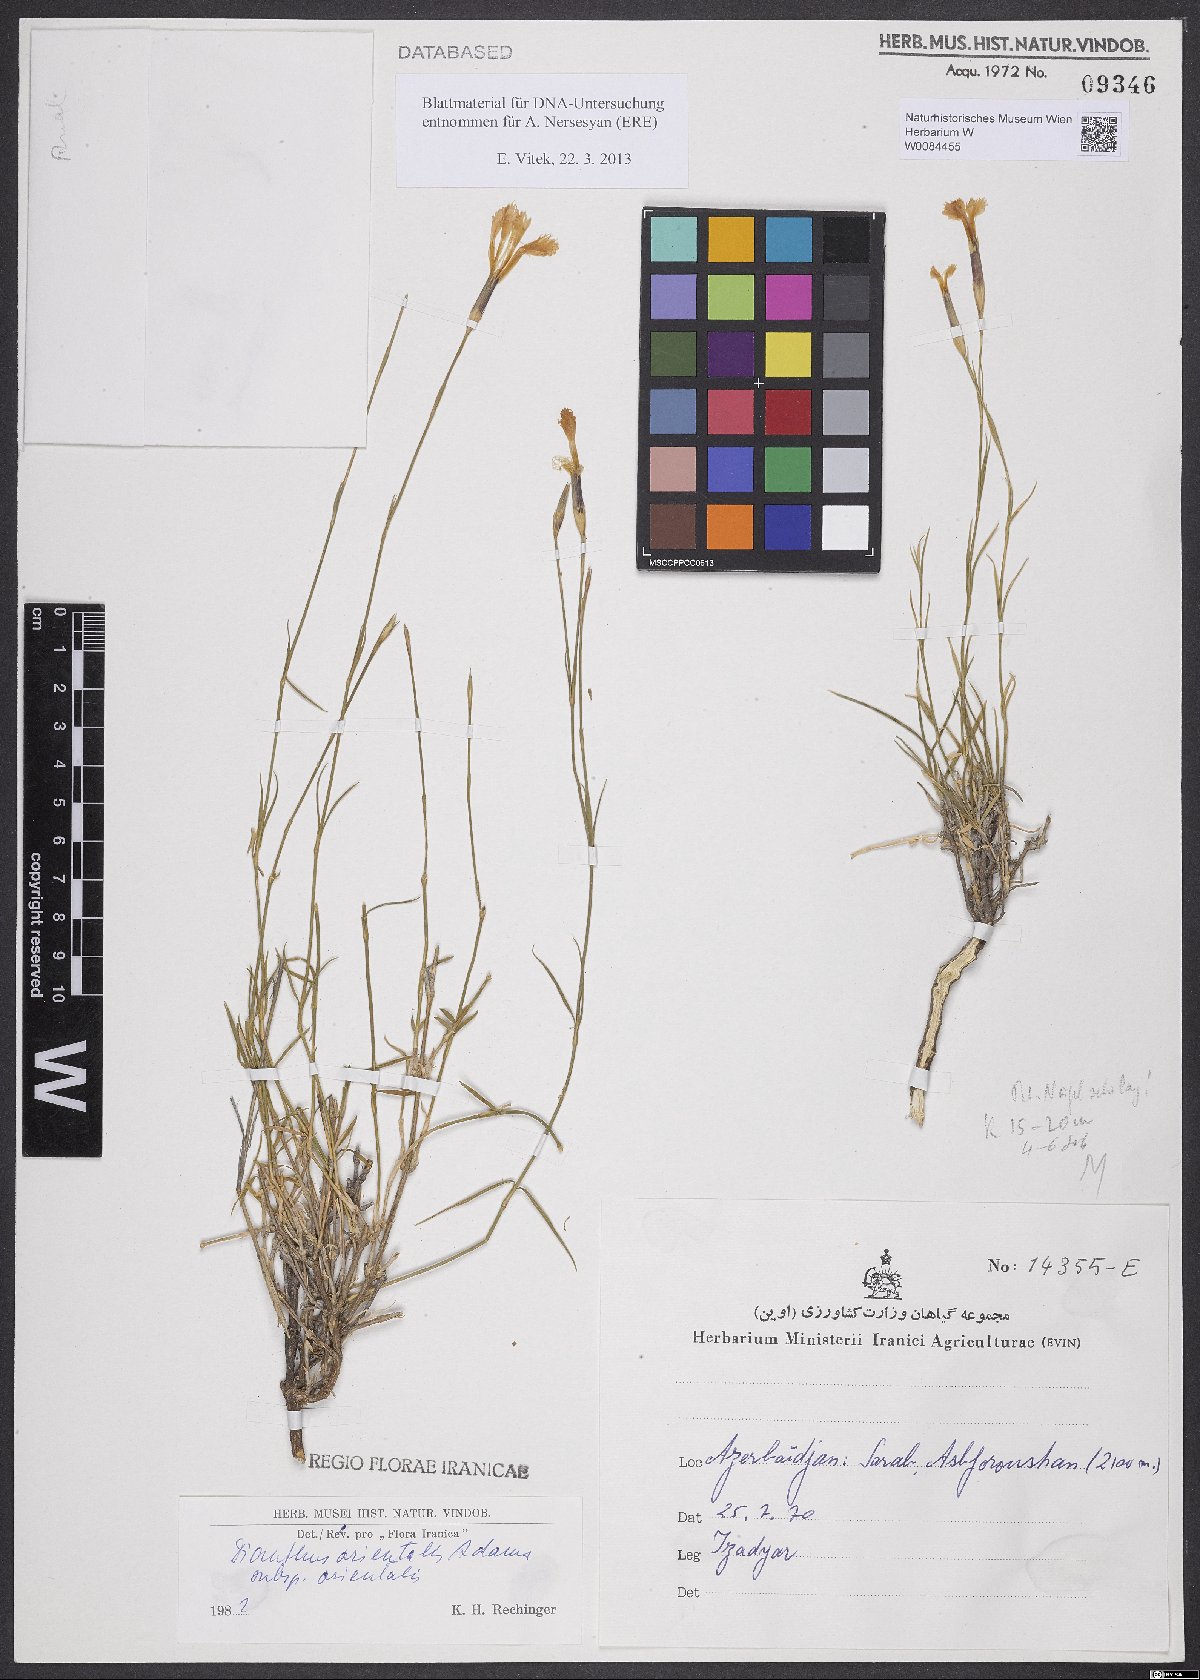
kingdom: Plantae
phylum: Tracheophyta
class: Magnoliopsida
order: Caryophyllales
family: Caryophyllaceae
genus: Dianthus
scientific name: Dianthus orientalis
